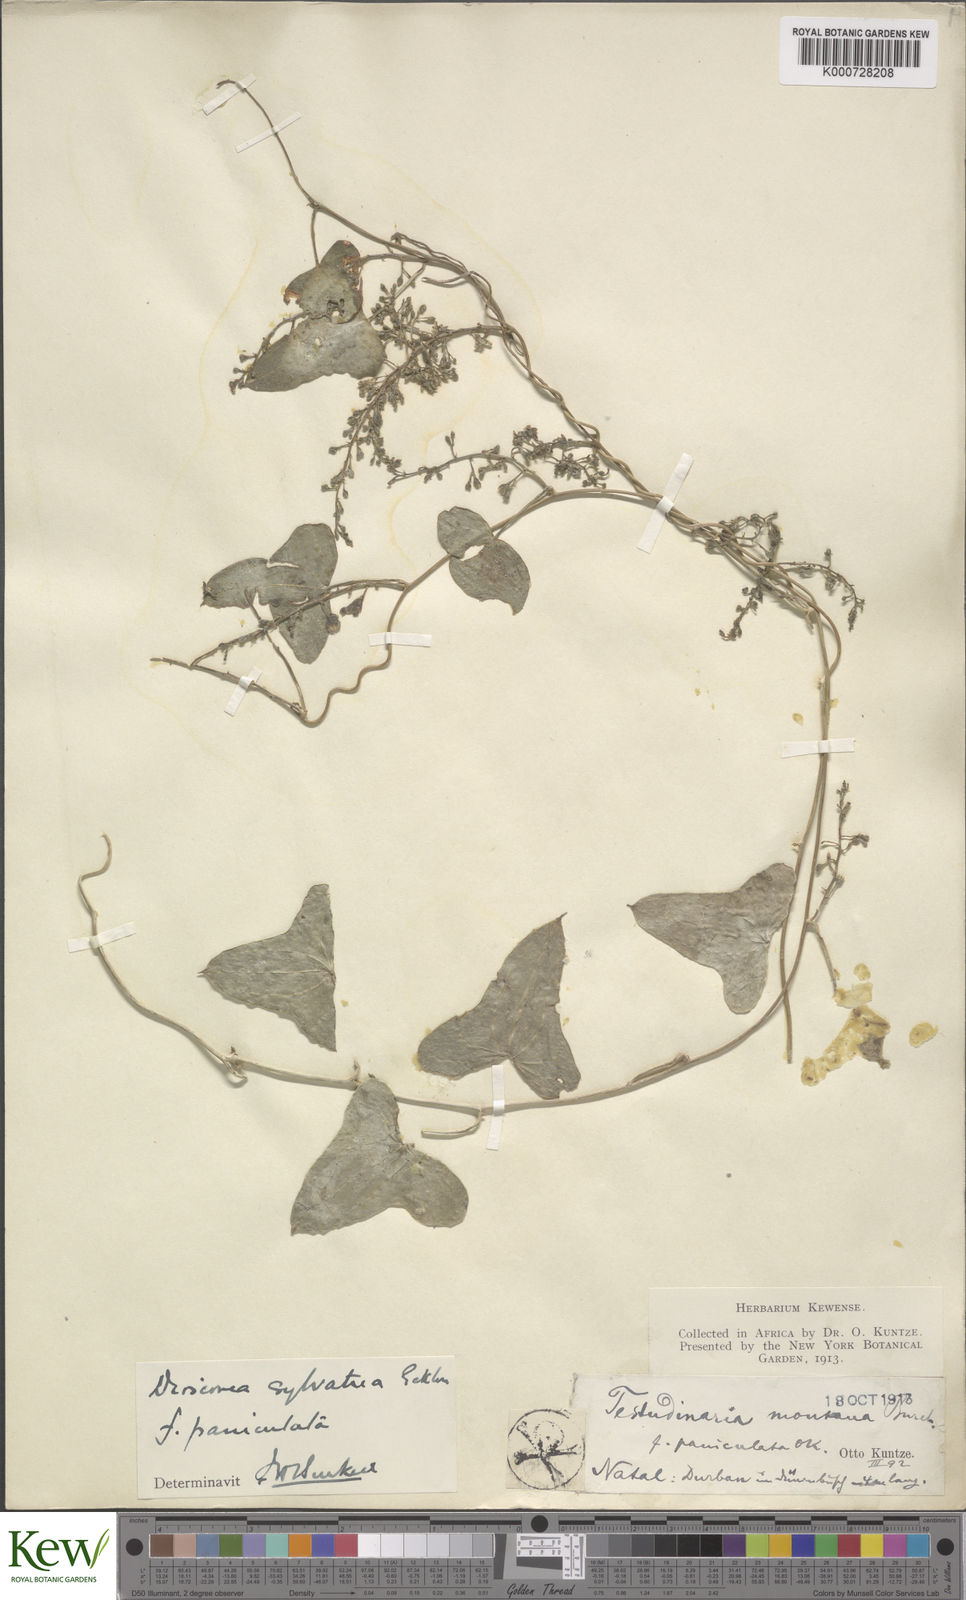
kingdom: Plantae
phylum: Tracheophyta
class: Liliopsida
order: Dioscoreales
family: Dioscoreaceae
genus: Dioscorea
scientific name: Dioscorea sylvatica
